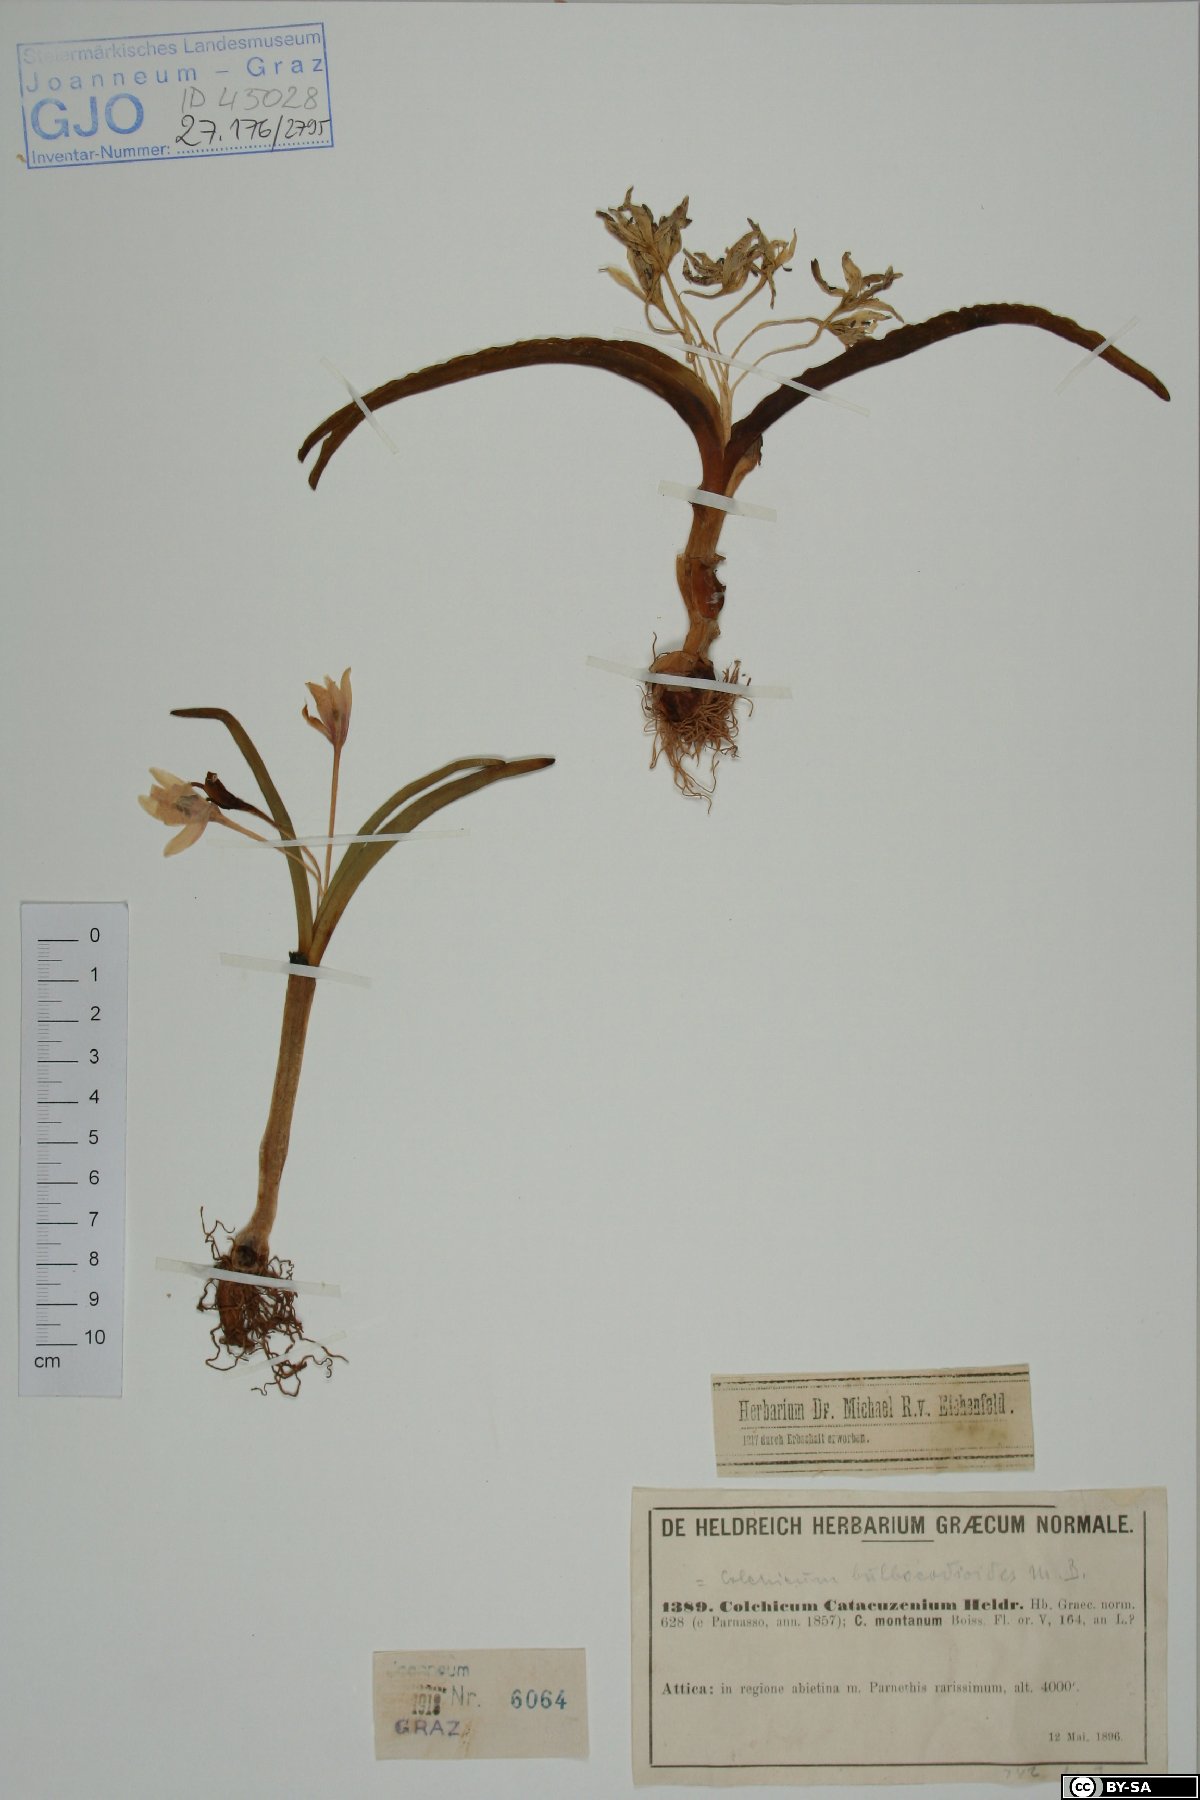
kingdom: Plantae
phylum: Tracheophyta
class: Liliopsida
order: Liliales
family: Colchicaceae
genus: Colchicum
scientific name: Colchicum triphyllum
